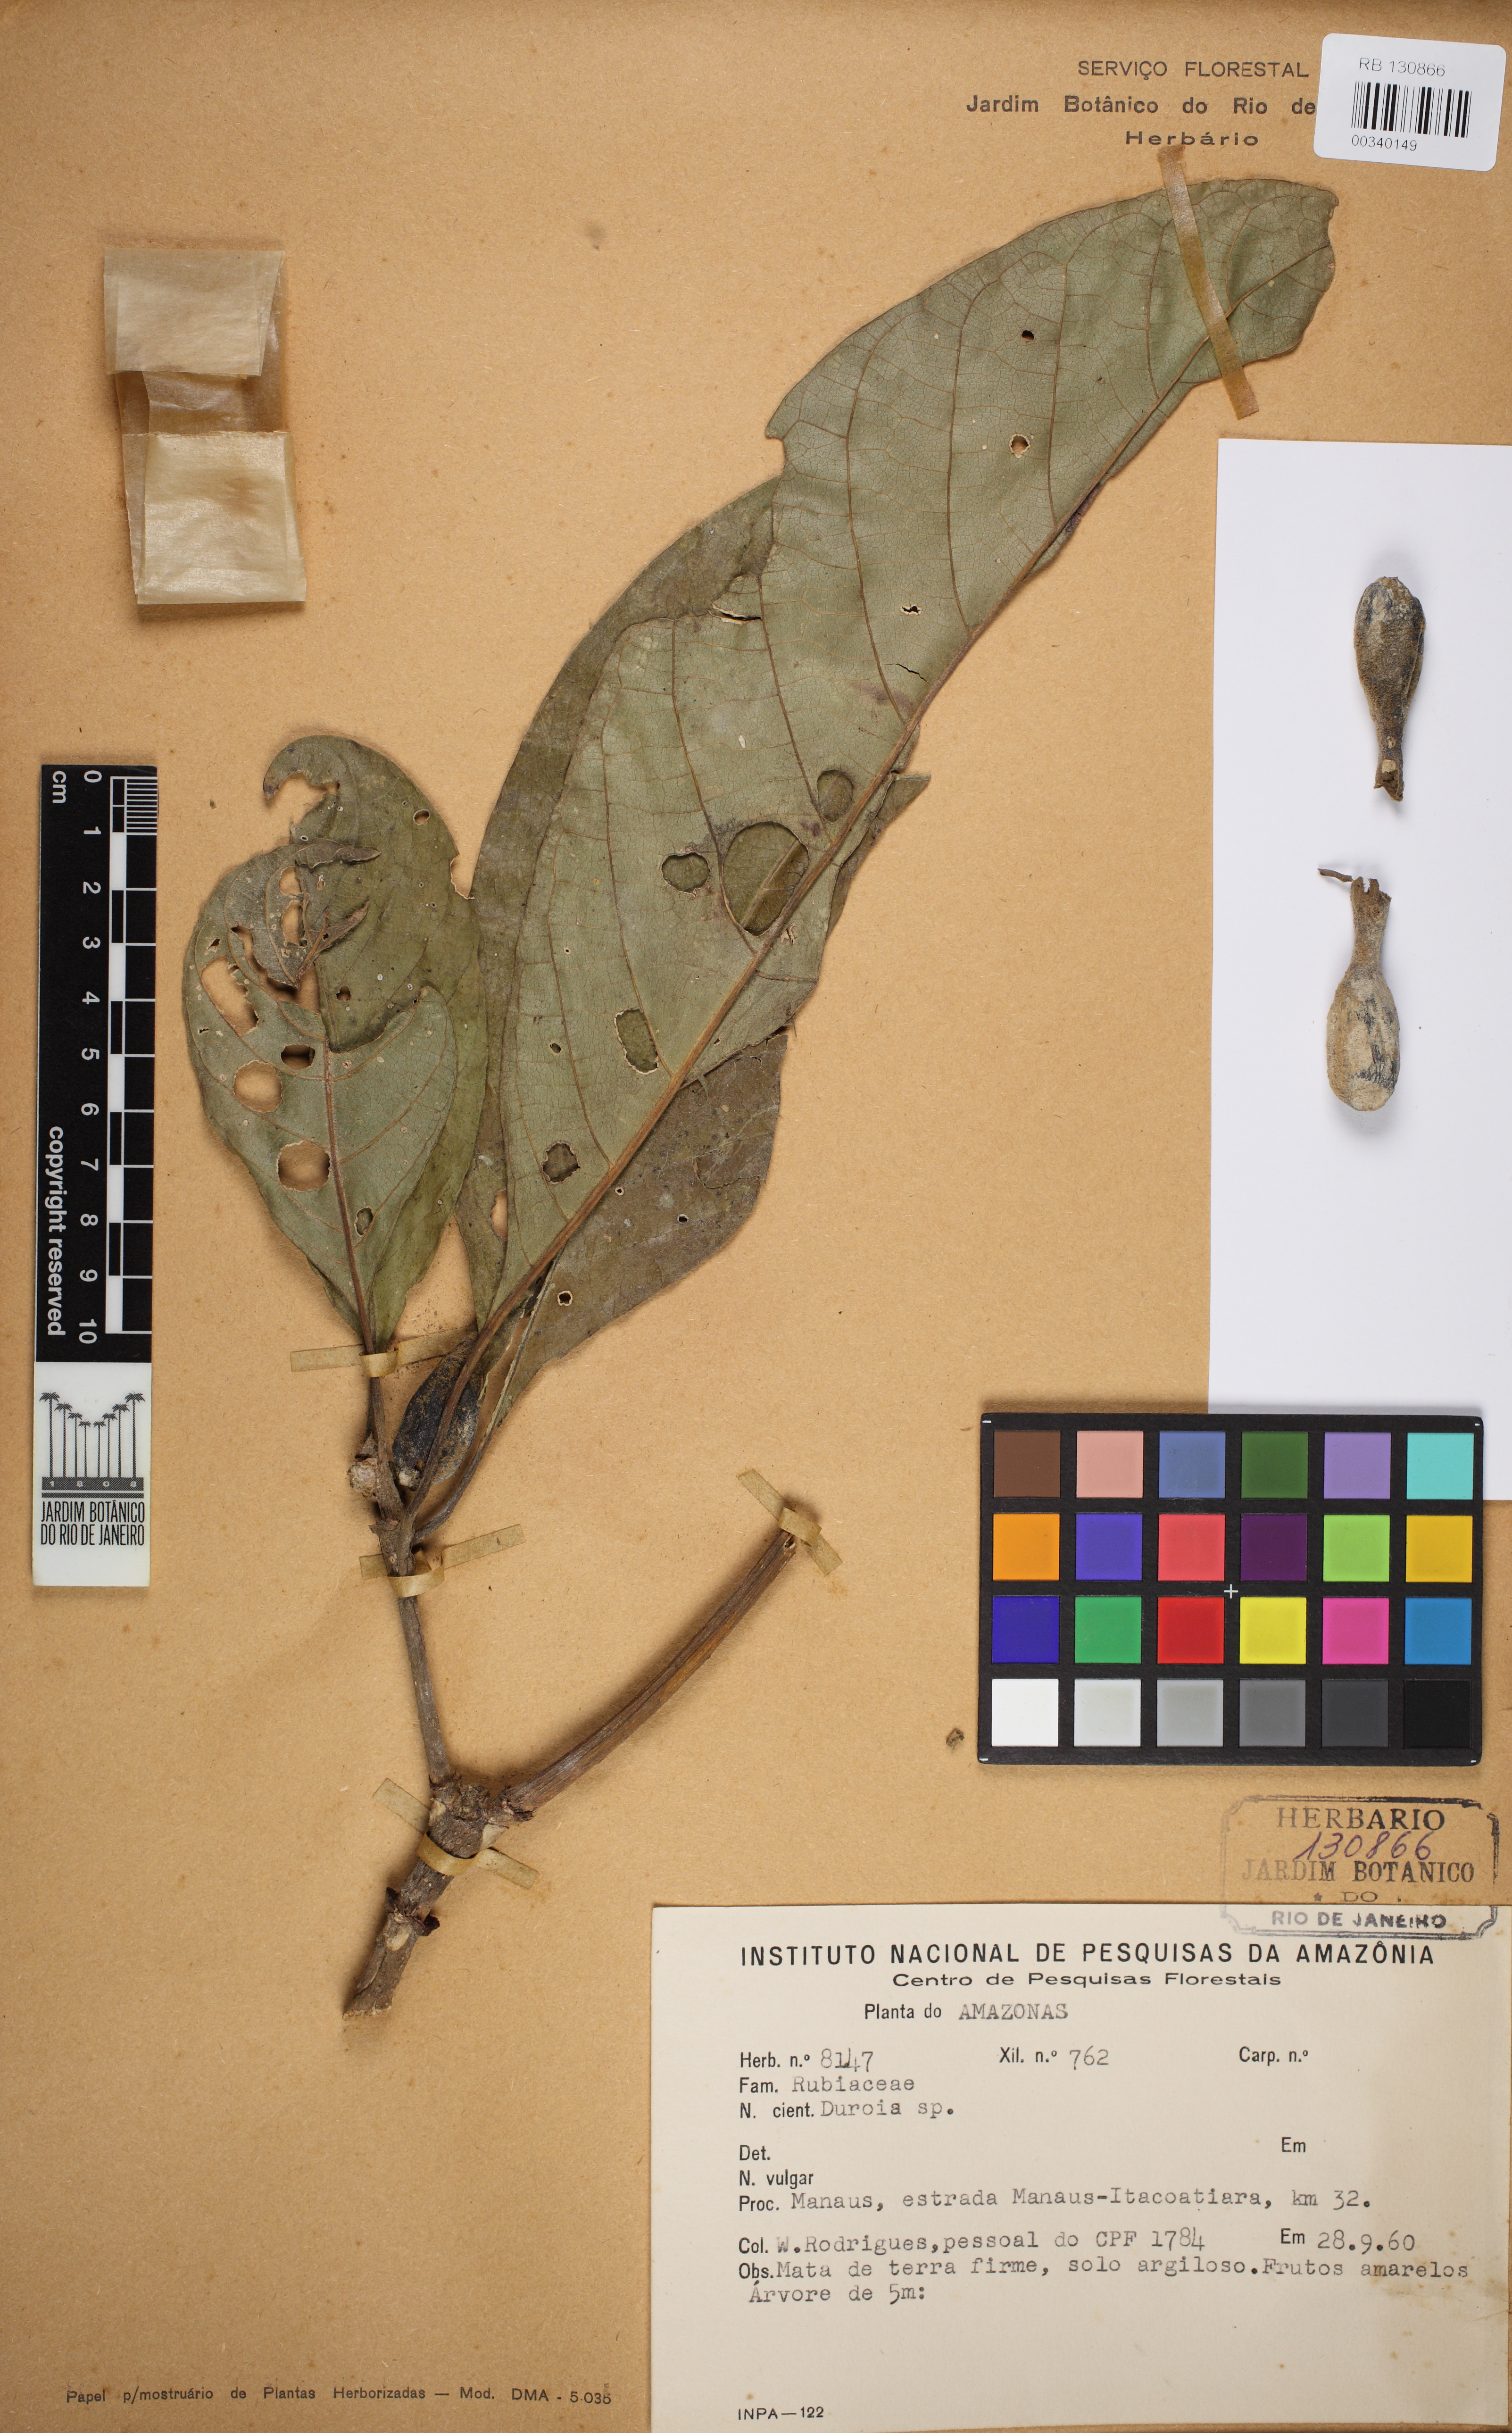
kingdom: Plantae
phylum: Tracheophyta
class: Magnoliopsida
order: Gentianales
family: Rubiaceae
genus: Duroia
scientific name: Duroia
